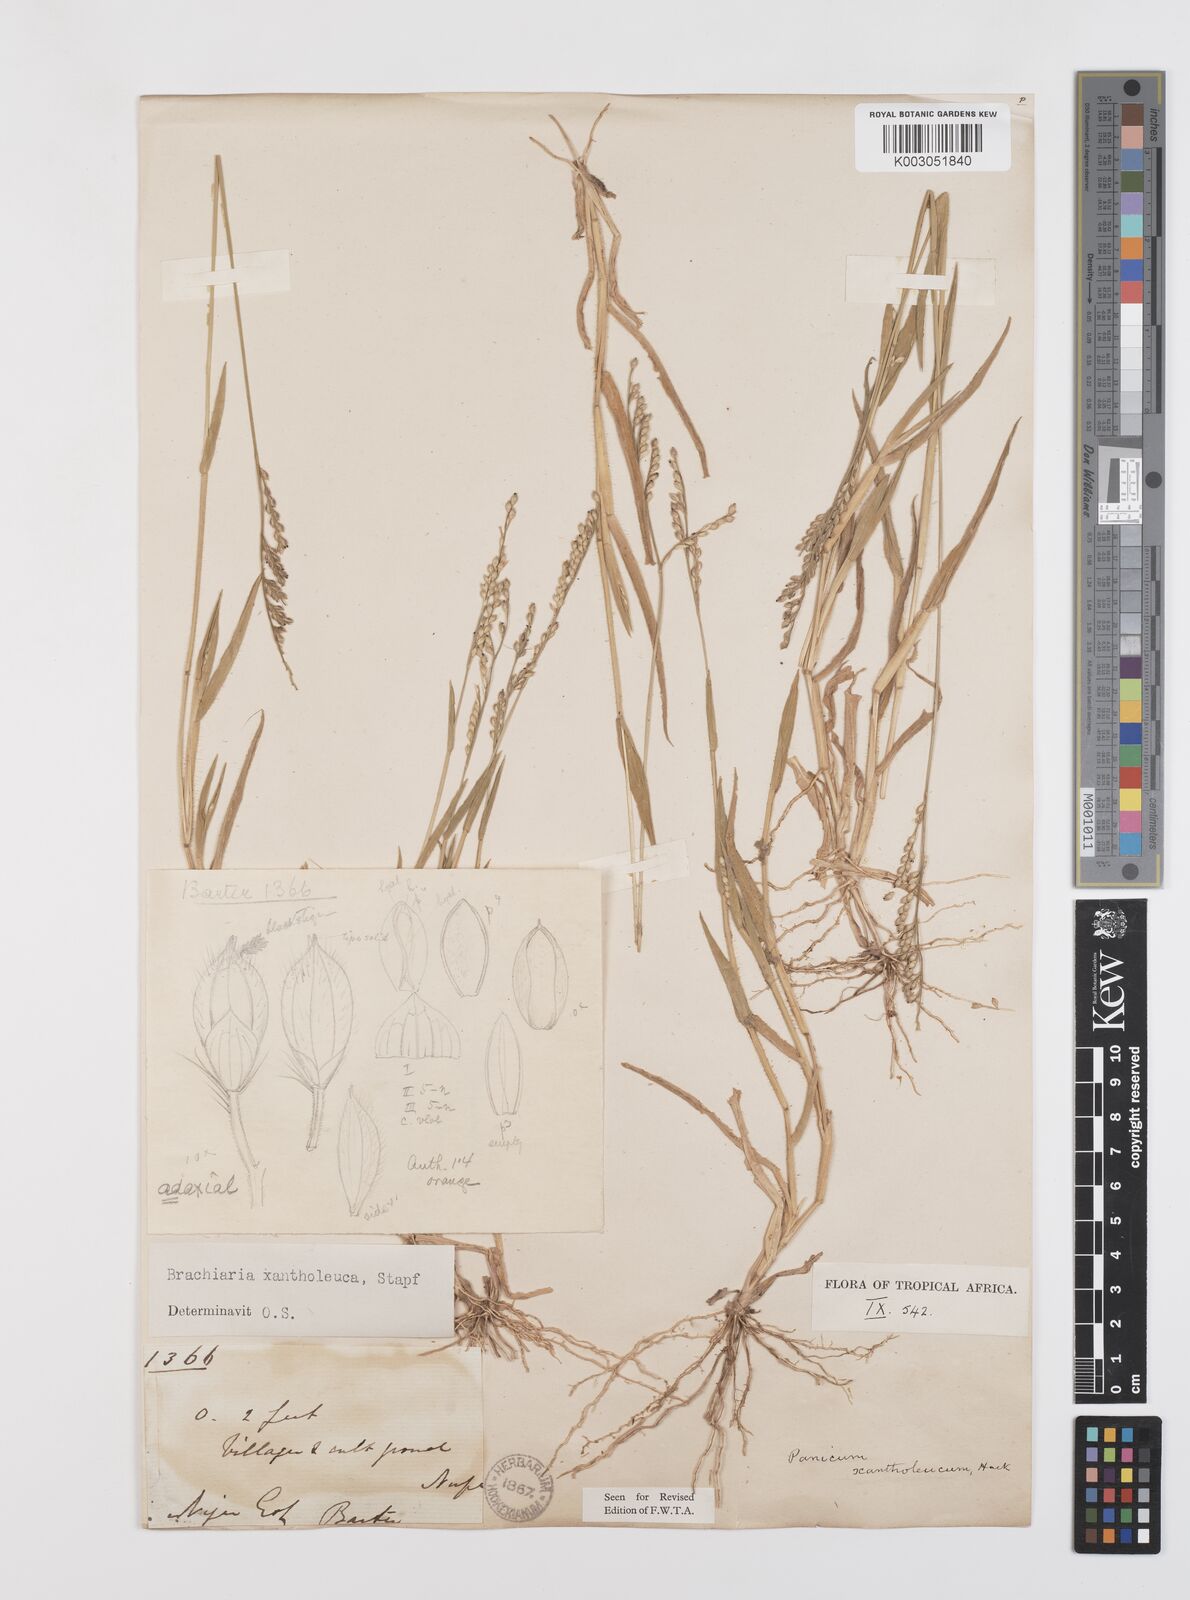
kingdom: Plantae
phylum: Tracheophyta
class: Liliopsida
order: Poales
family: Poaceae
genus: Urochloa
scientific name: Urochloa xantholeuca
